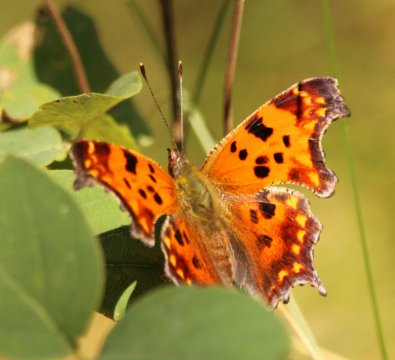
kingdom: Animalia
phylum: Arthropoda
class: Insecta
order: Lepidoptera
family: Nymphalidae
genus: Polygonia
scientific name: Polygonia satyrus
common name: Satyr Comma
